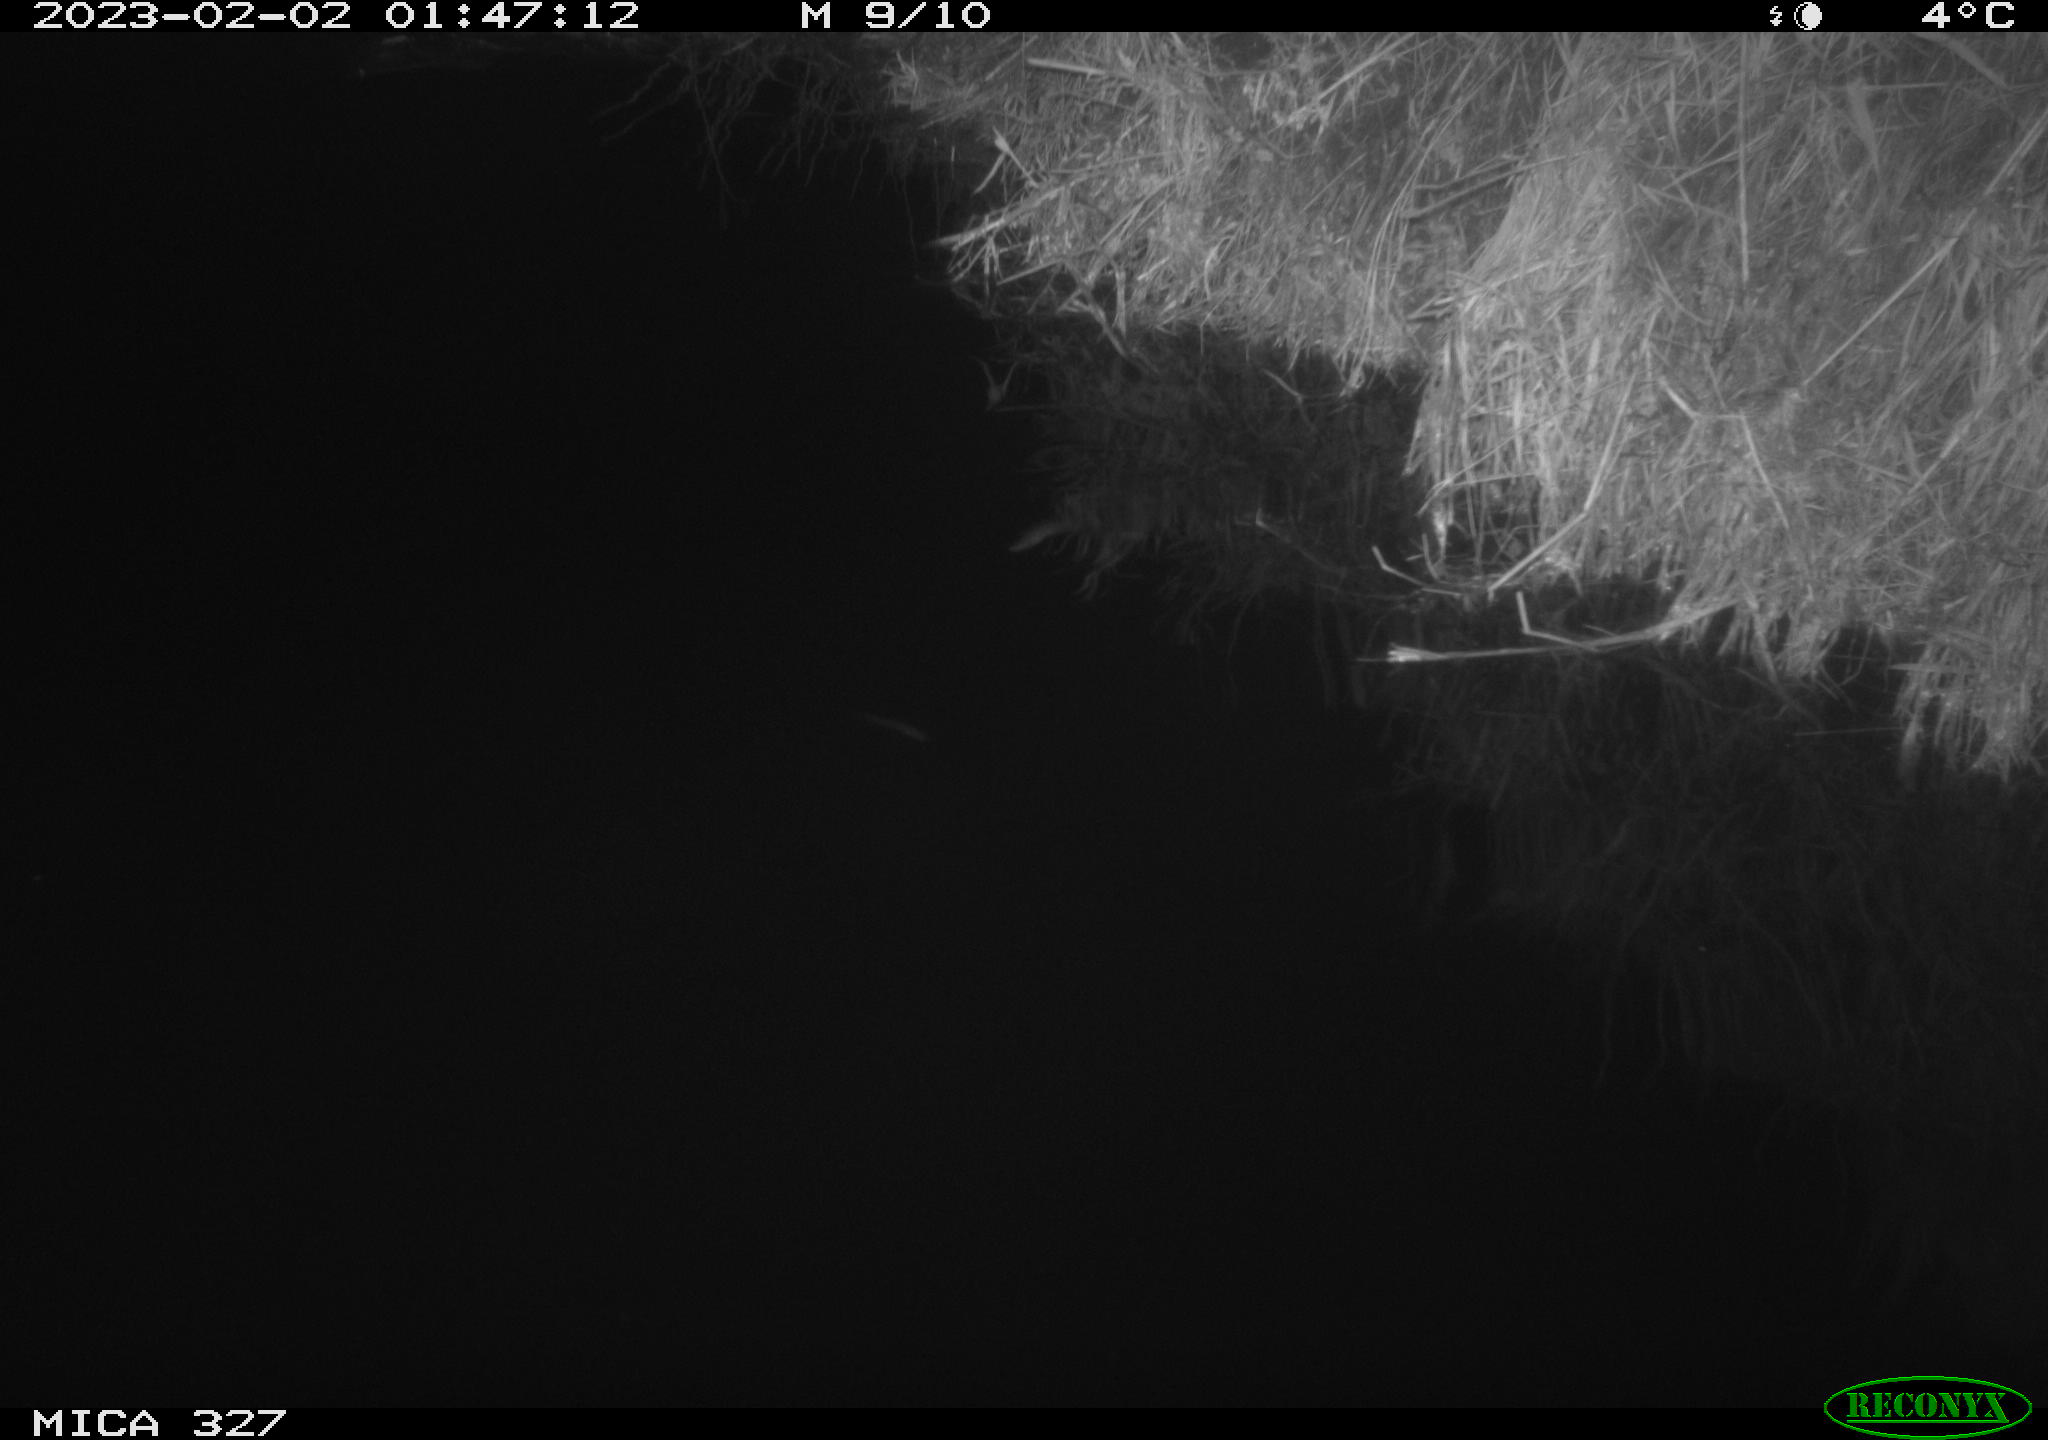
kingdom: Animalia
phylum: Chordata
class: Mammalia
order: Rodentia
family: Cricetidae
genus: Ondatra
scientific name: Ondatra zibethicus
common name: Muskrat
